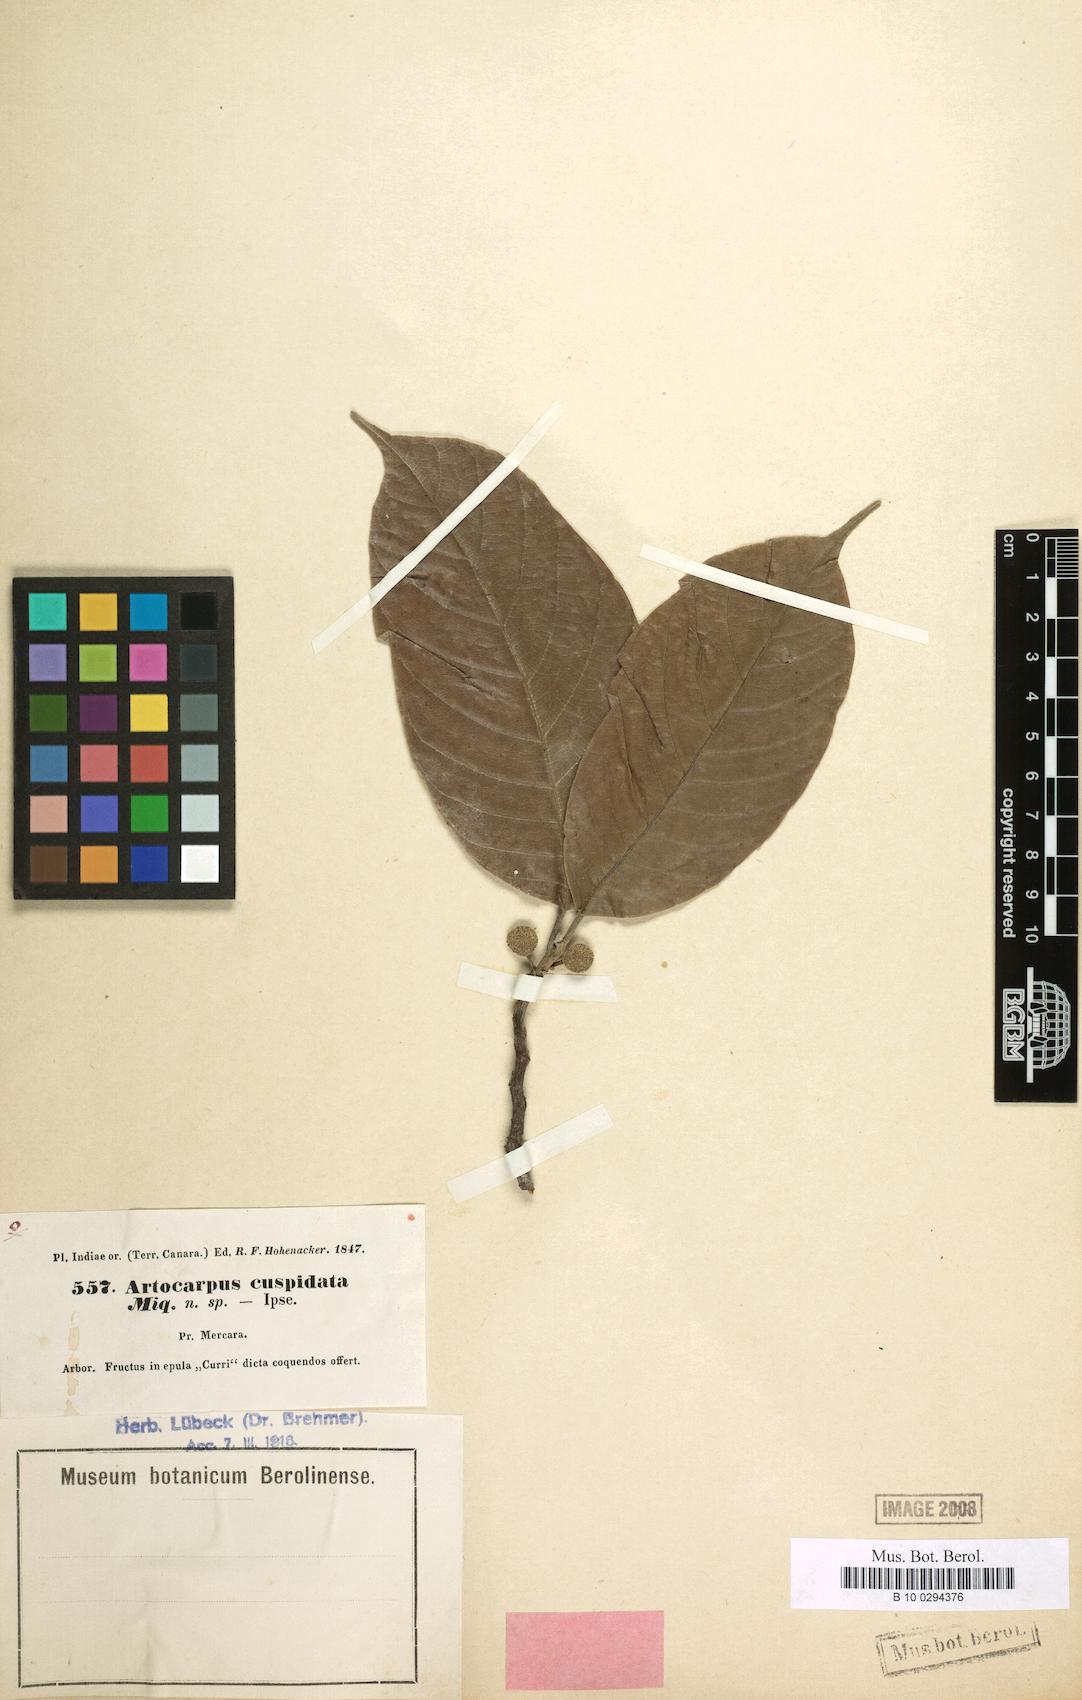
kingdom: Plantae
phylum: Tracheophyta
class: Magnoliopsida
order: Rosales
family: Moraceae
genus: Artocarpus
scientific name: Artocarpus rigidus
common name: Monkey-jack
